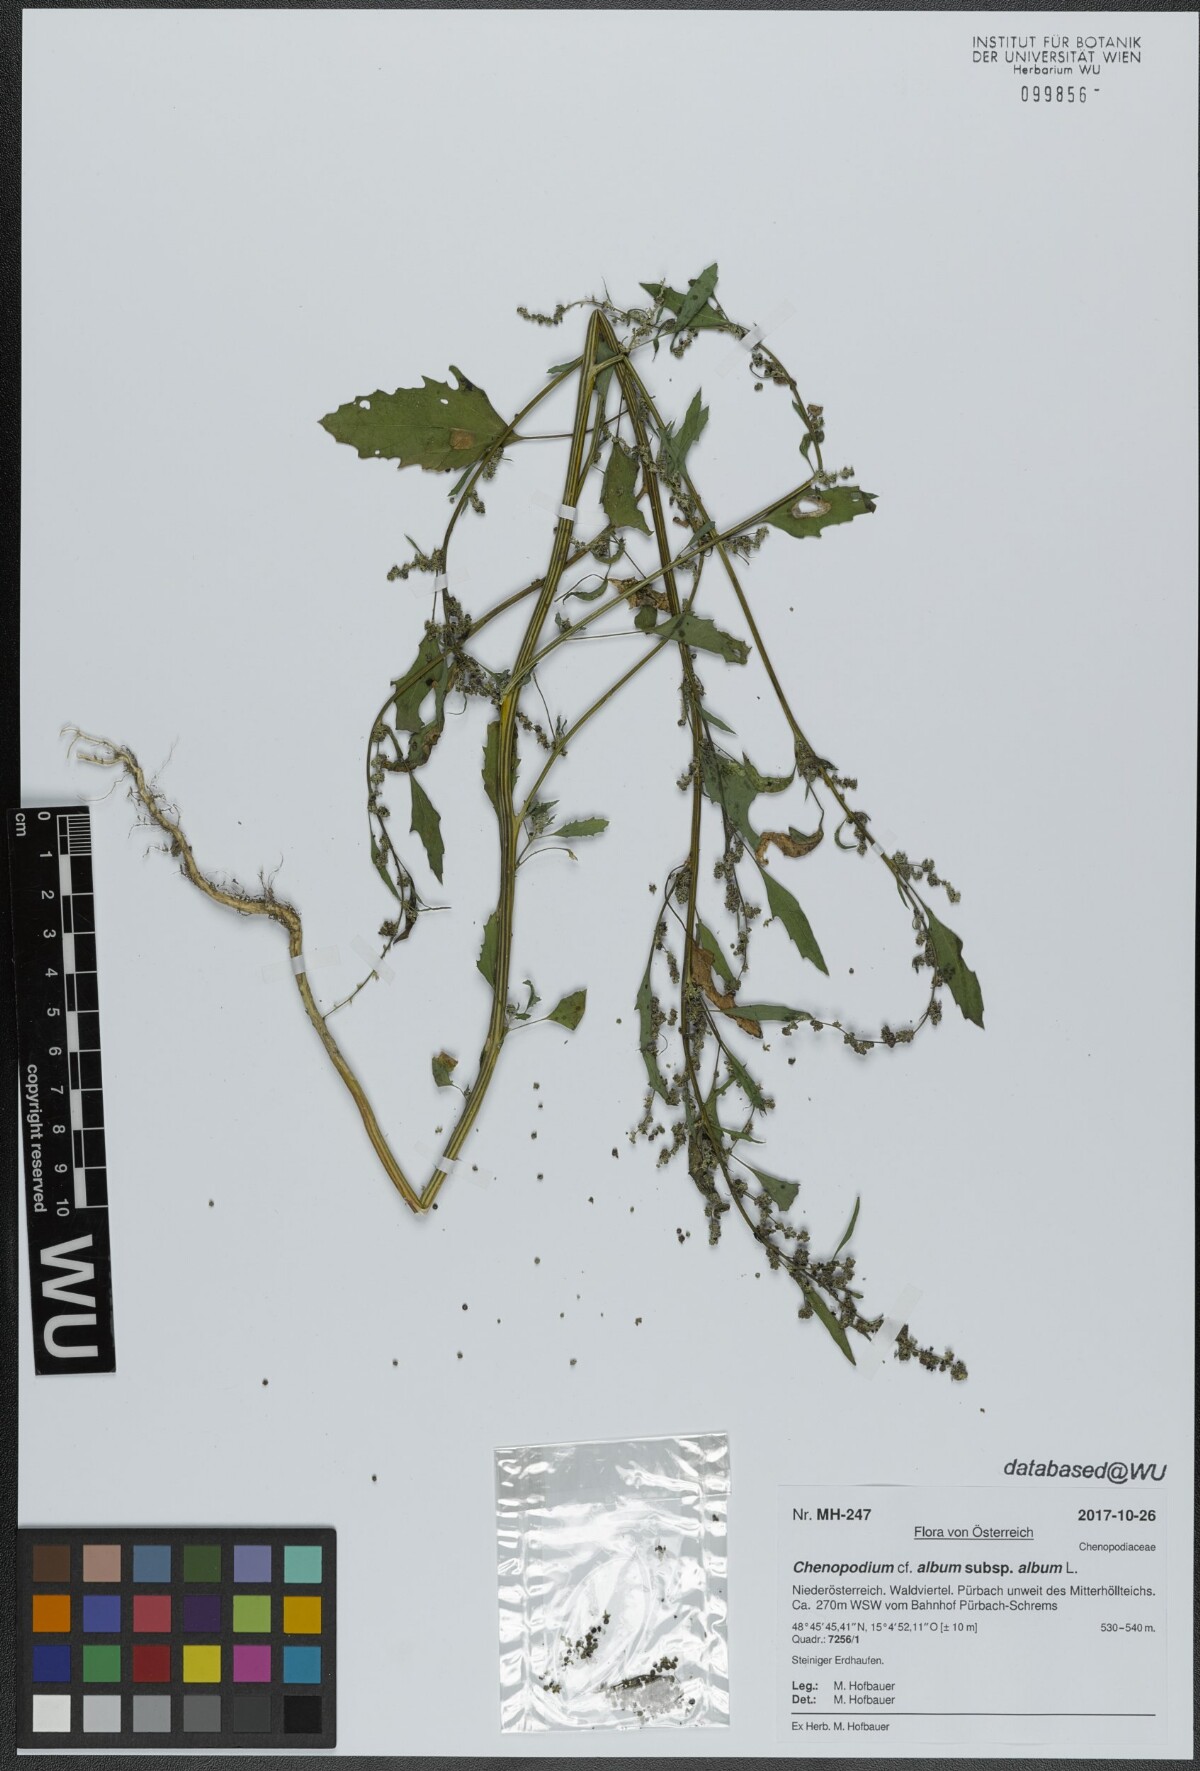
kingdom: Plantae
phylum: Tracheophyta
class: Magnoliopsida
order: Caryophyllales
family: Amaranthaceae
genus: Chenopodium
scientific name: Chenopodium album
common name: Fat-hen
